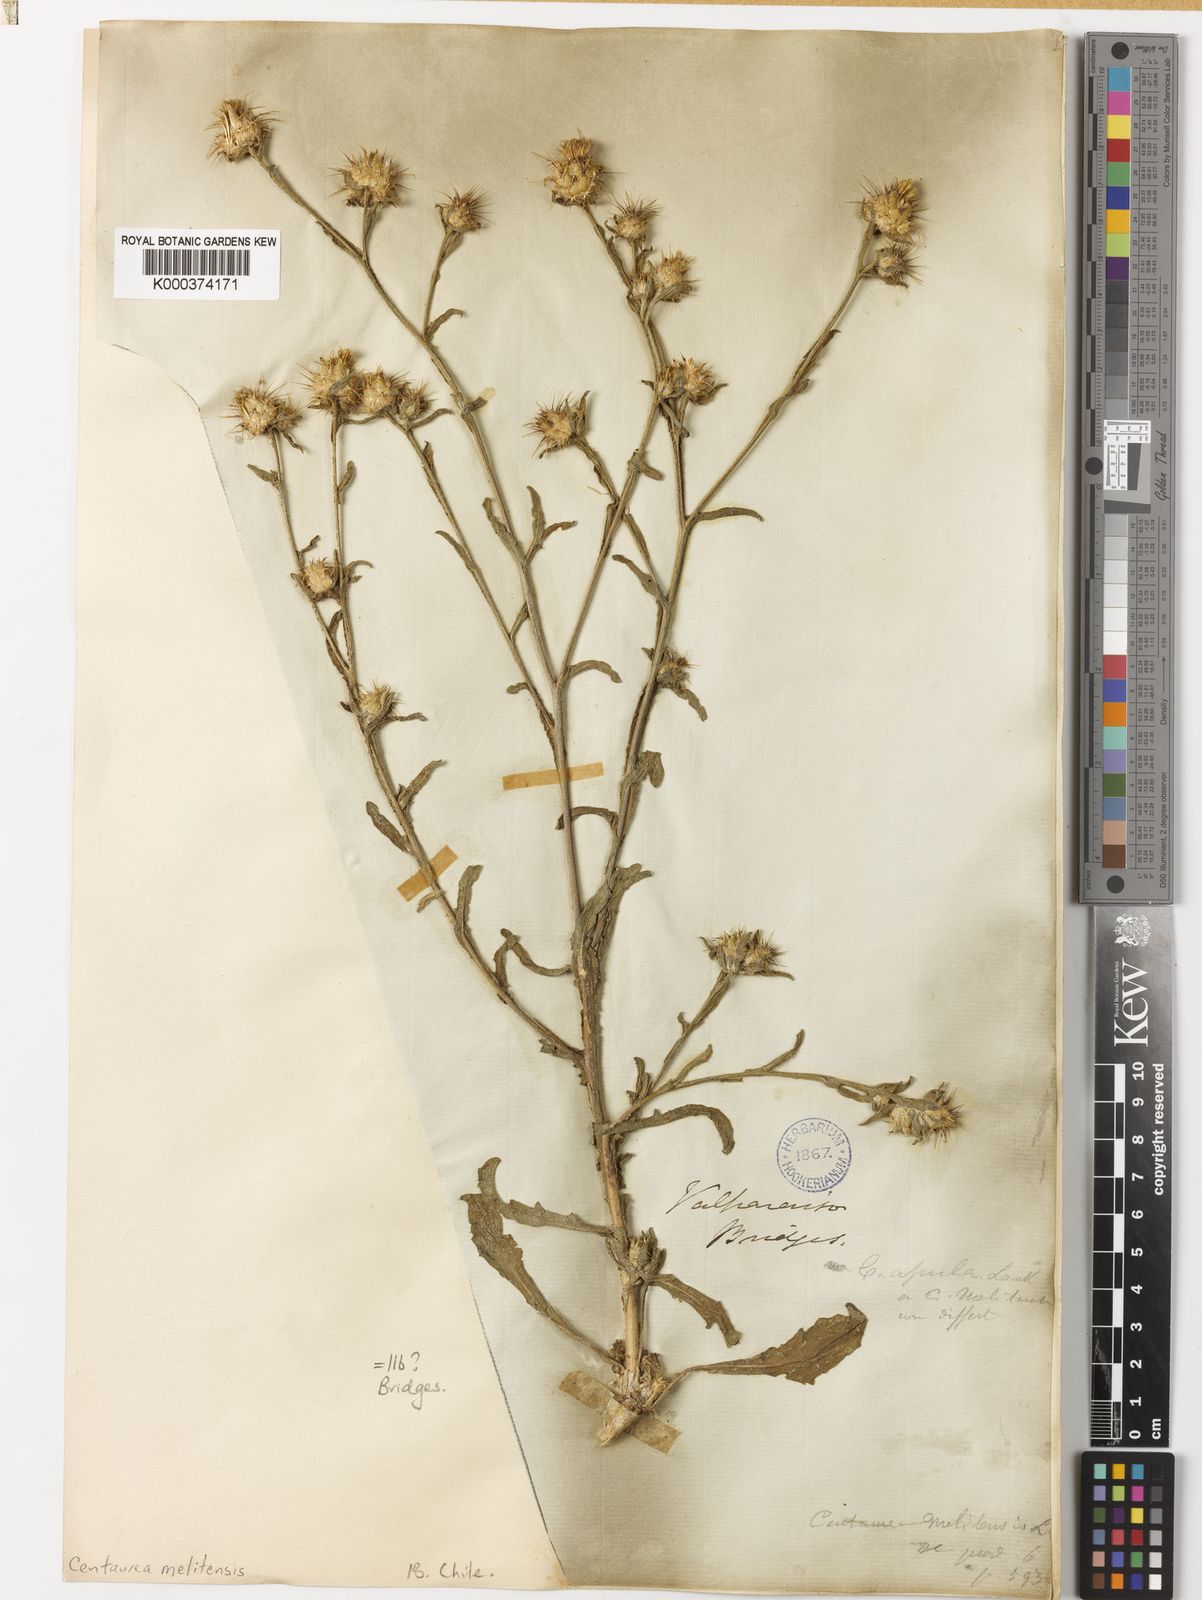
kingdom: Plantae
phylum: Tracheophyta
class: Magnoliopsida
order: Asterales
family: Asteraceae
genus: Centaurea
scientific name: Centaurea melitensis
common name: Maltese star-thistle
